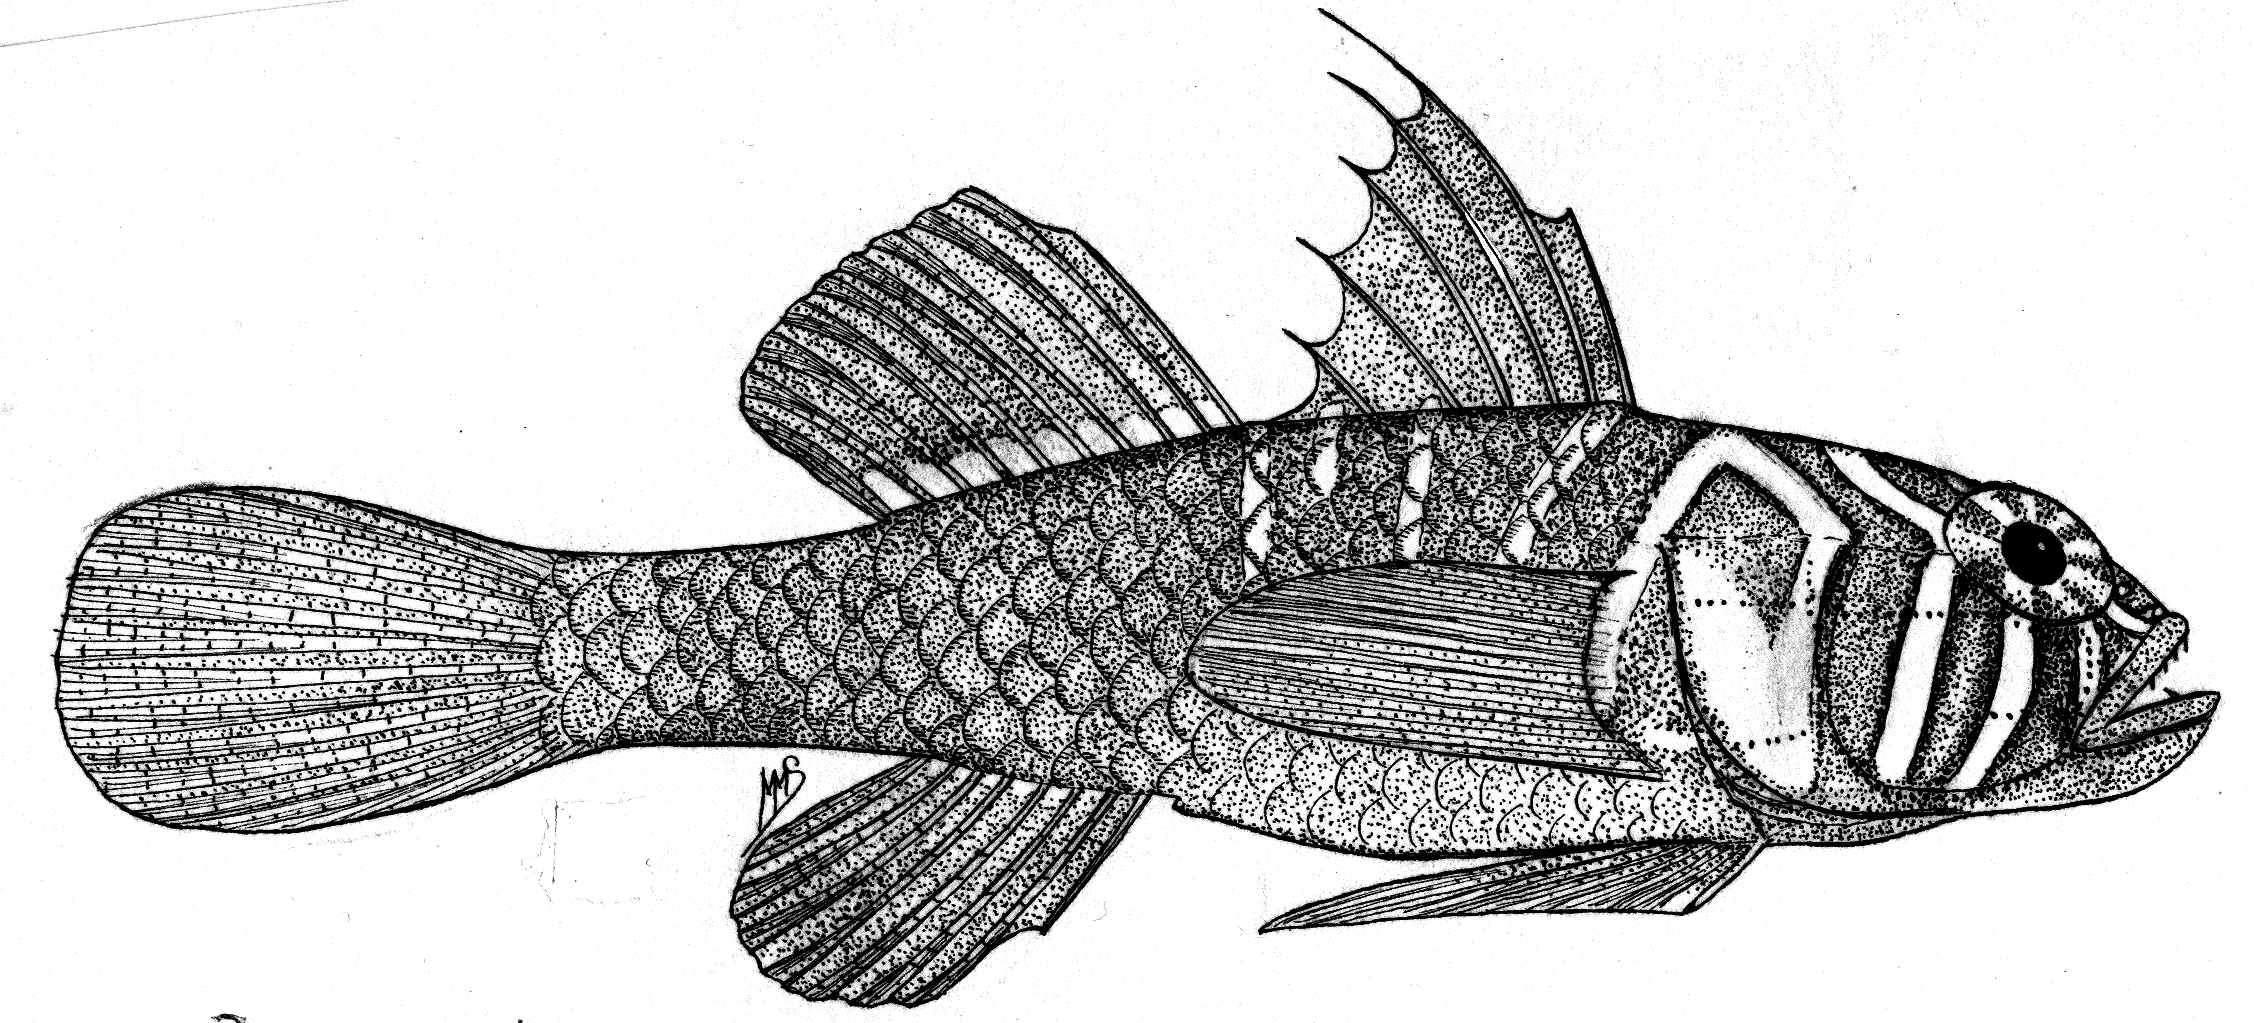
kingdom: Animalia
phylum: Chordata
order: Perciformes
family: Gobiidae
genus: Priolepis
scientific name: Priolepis semidoliata
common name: Barrel goby
